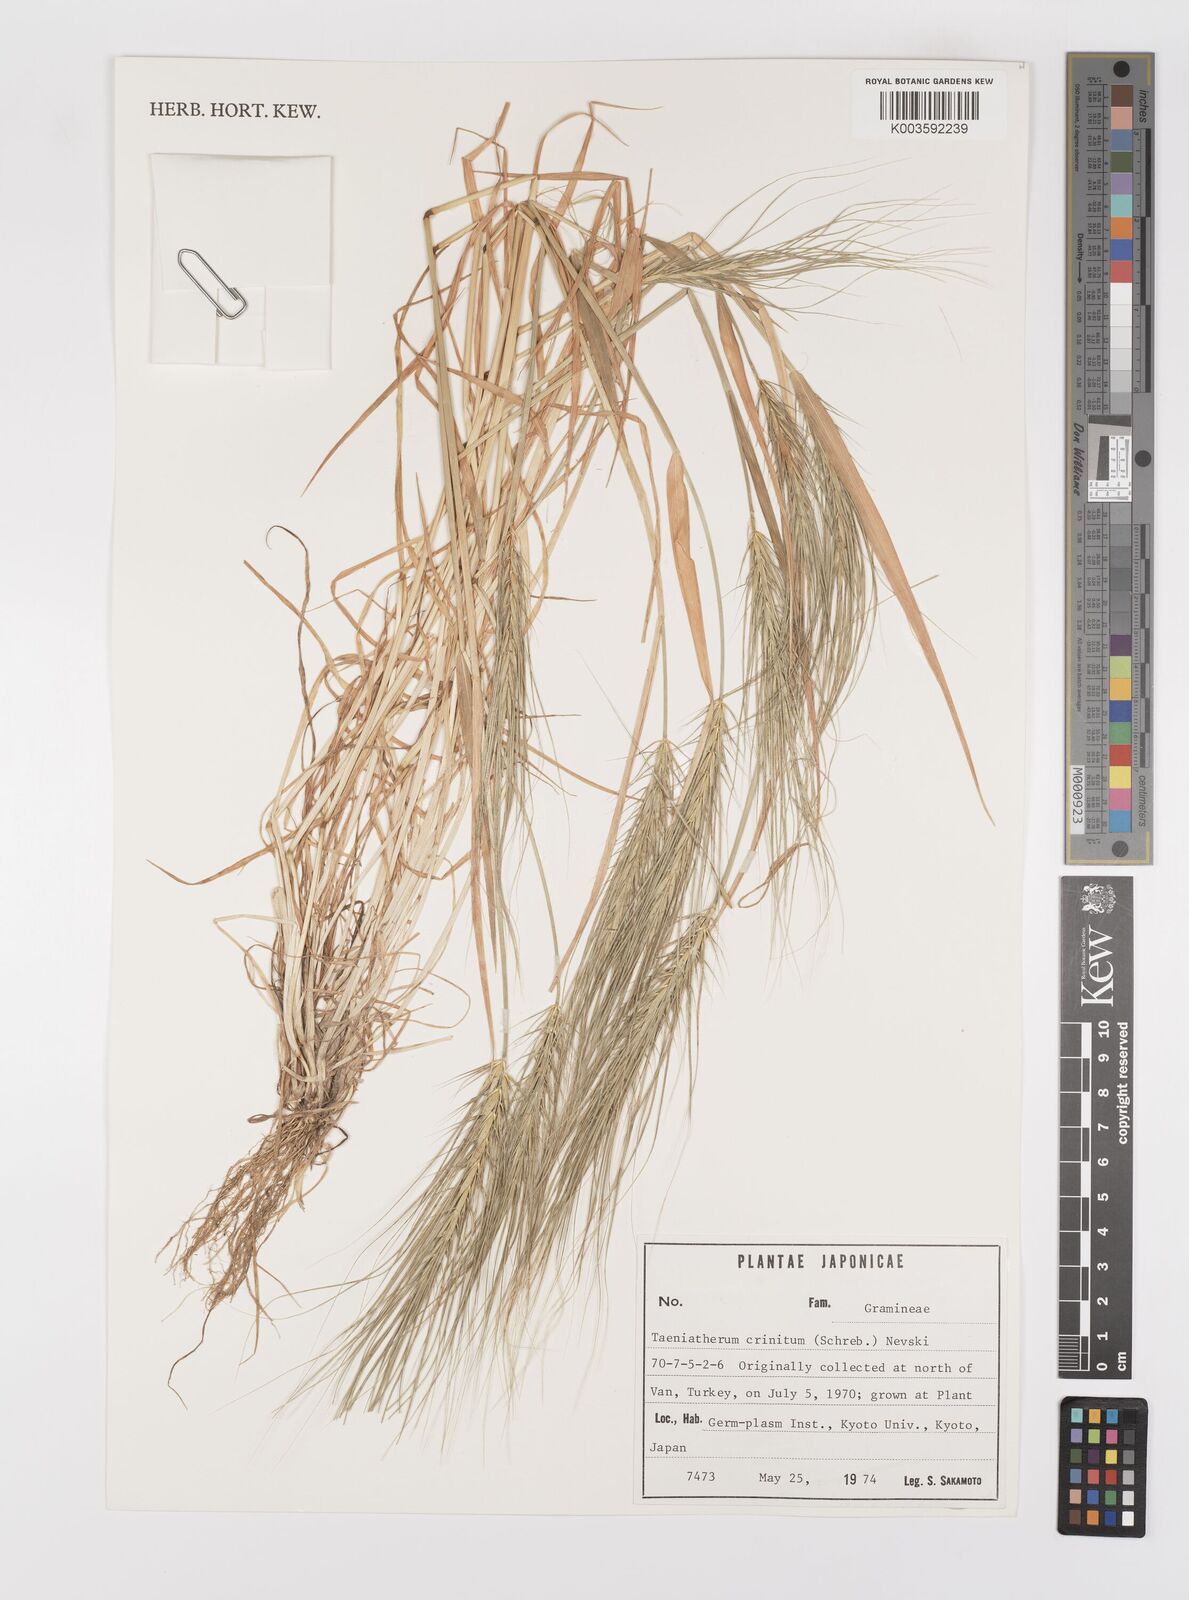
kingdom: Plantae
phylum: Tracheophyta
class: Liliopsida
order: Poales
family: Poaceae
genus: Taeniatherum
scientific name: Taeniatherum caput-medusae
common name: Medusahead
